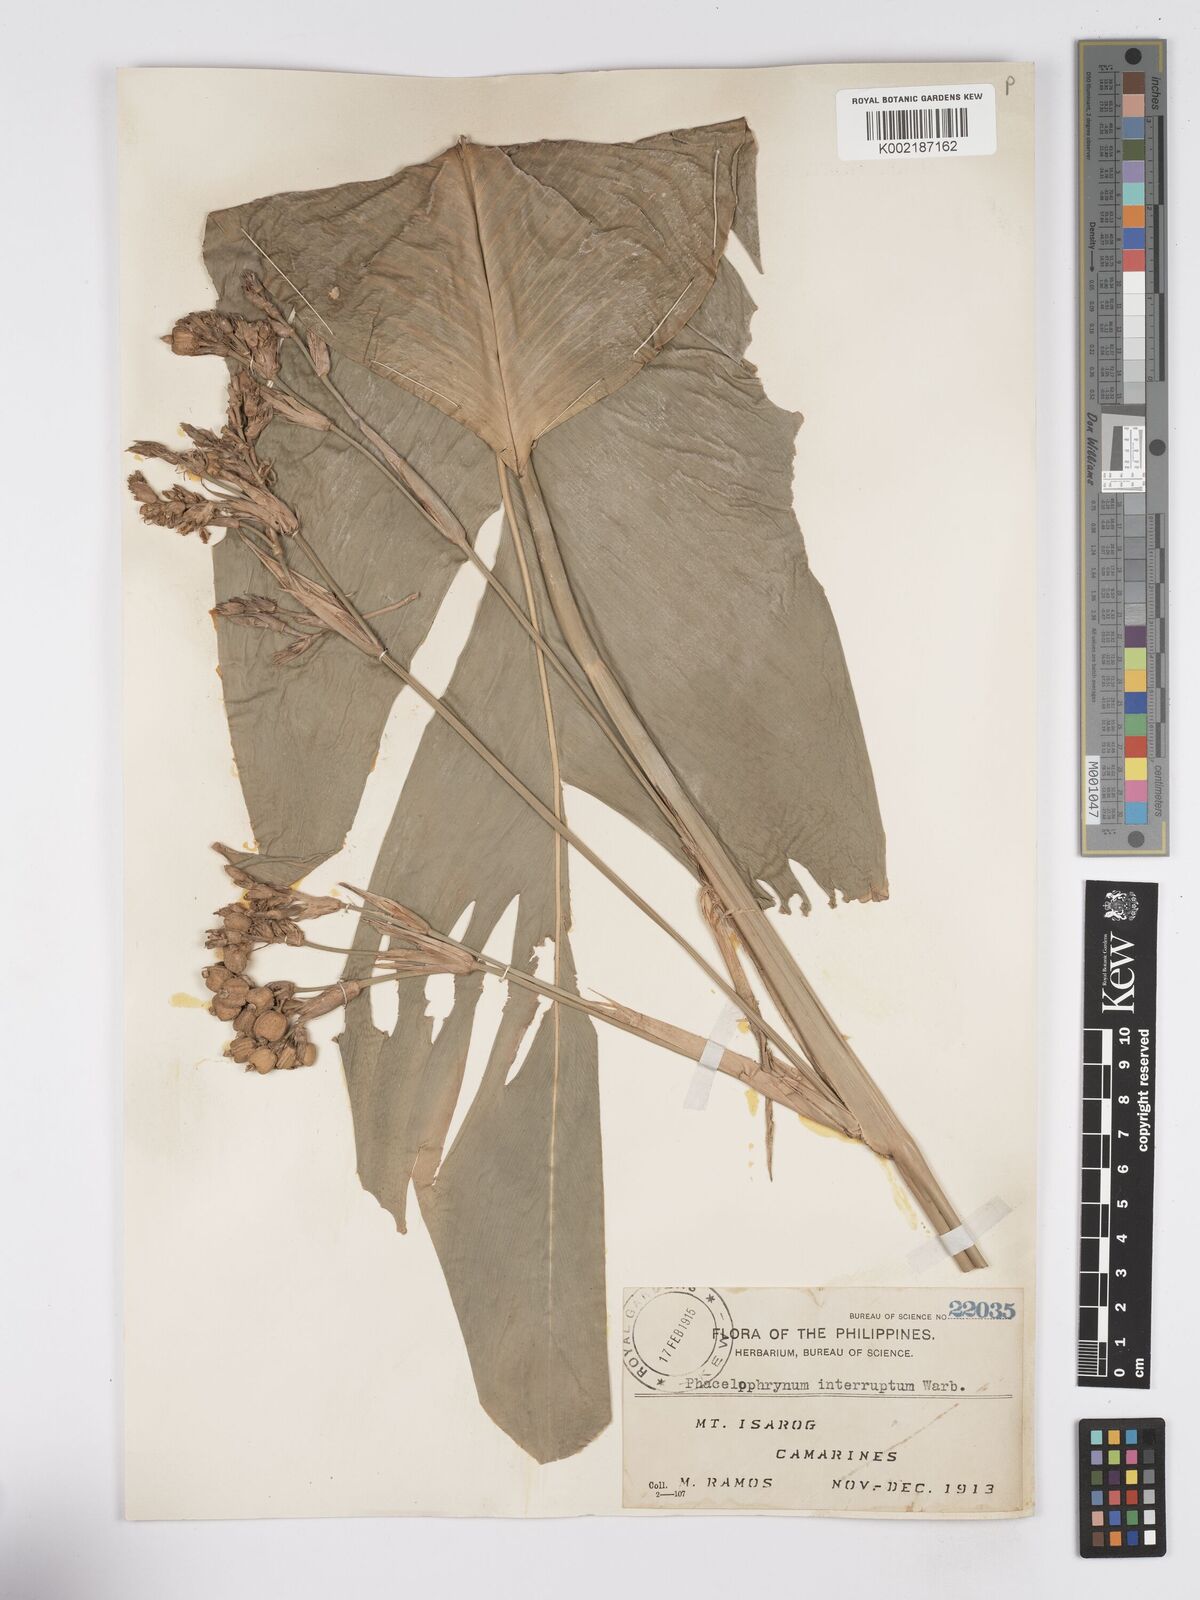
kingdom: Plantae
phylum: Tracheophyta
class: Liliopsida
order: Zingiberales
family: Marantaceae
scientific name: Marantaceae
